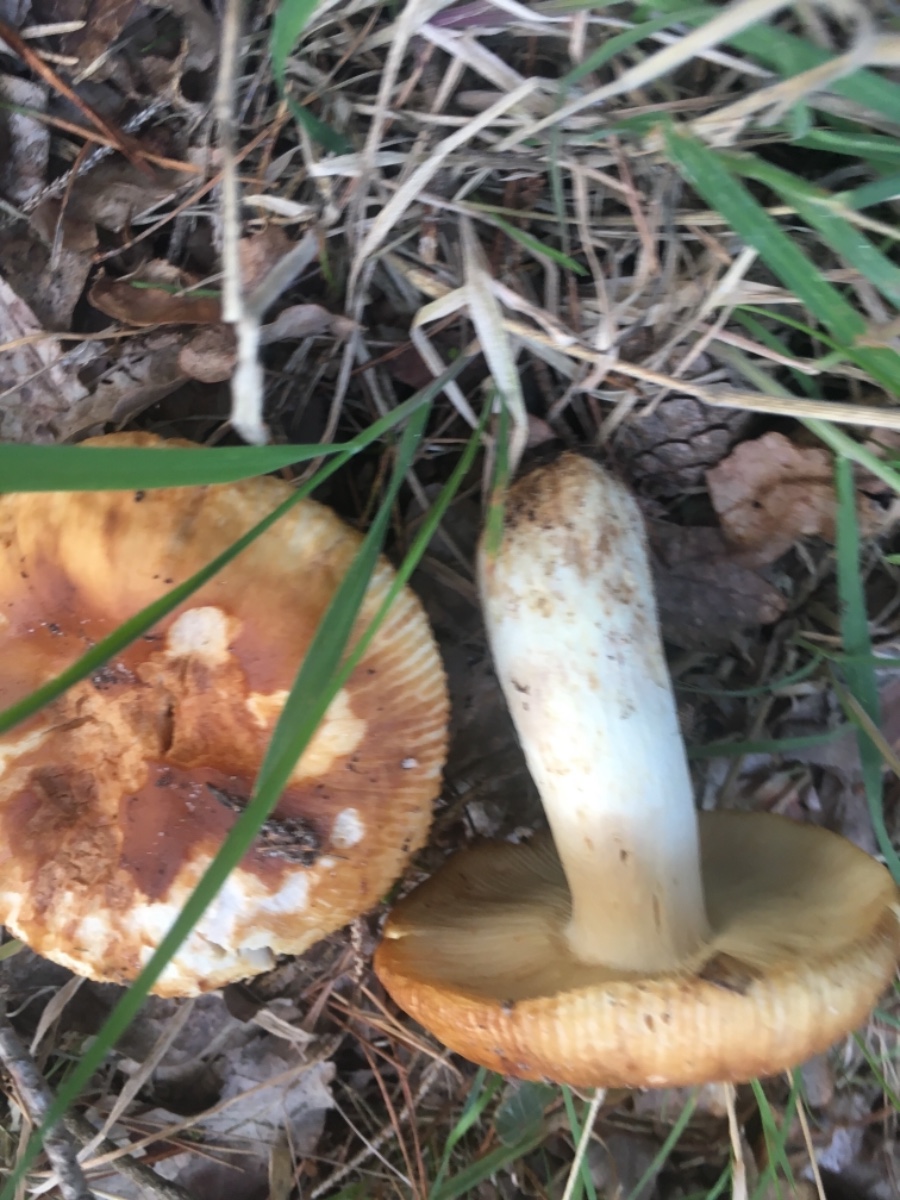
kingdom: Fungi
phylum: Basidiomycota
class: Agaricomycetes
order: Russulales
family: Russulaceae
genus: Russula
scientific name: Russula foetens
